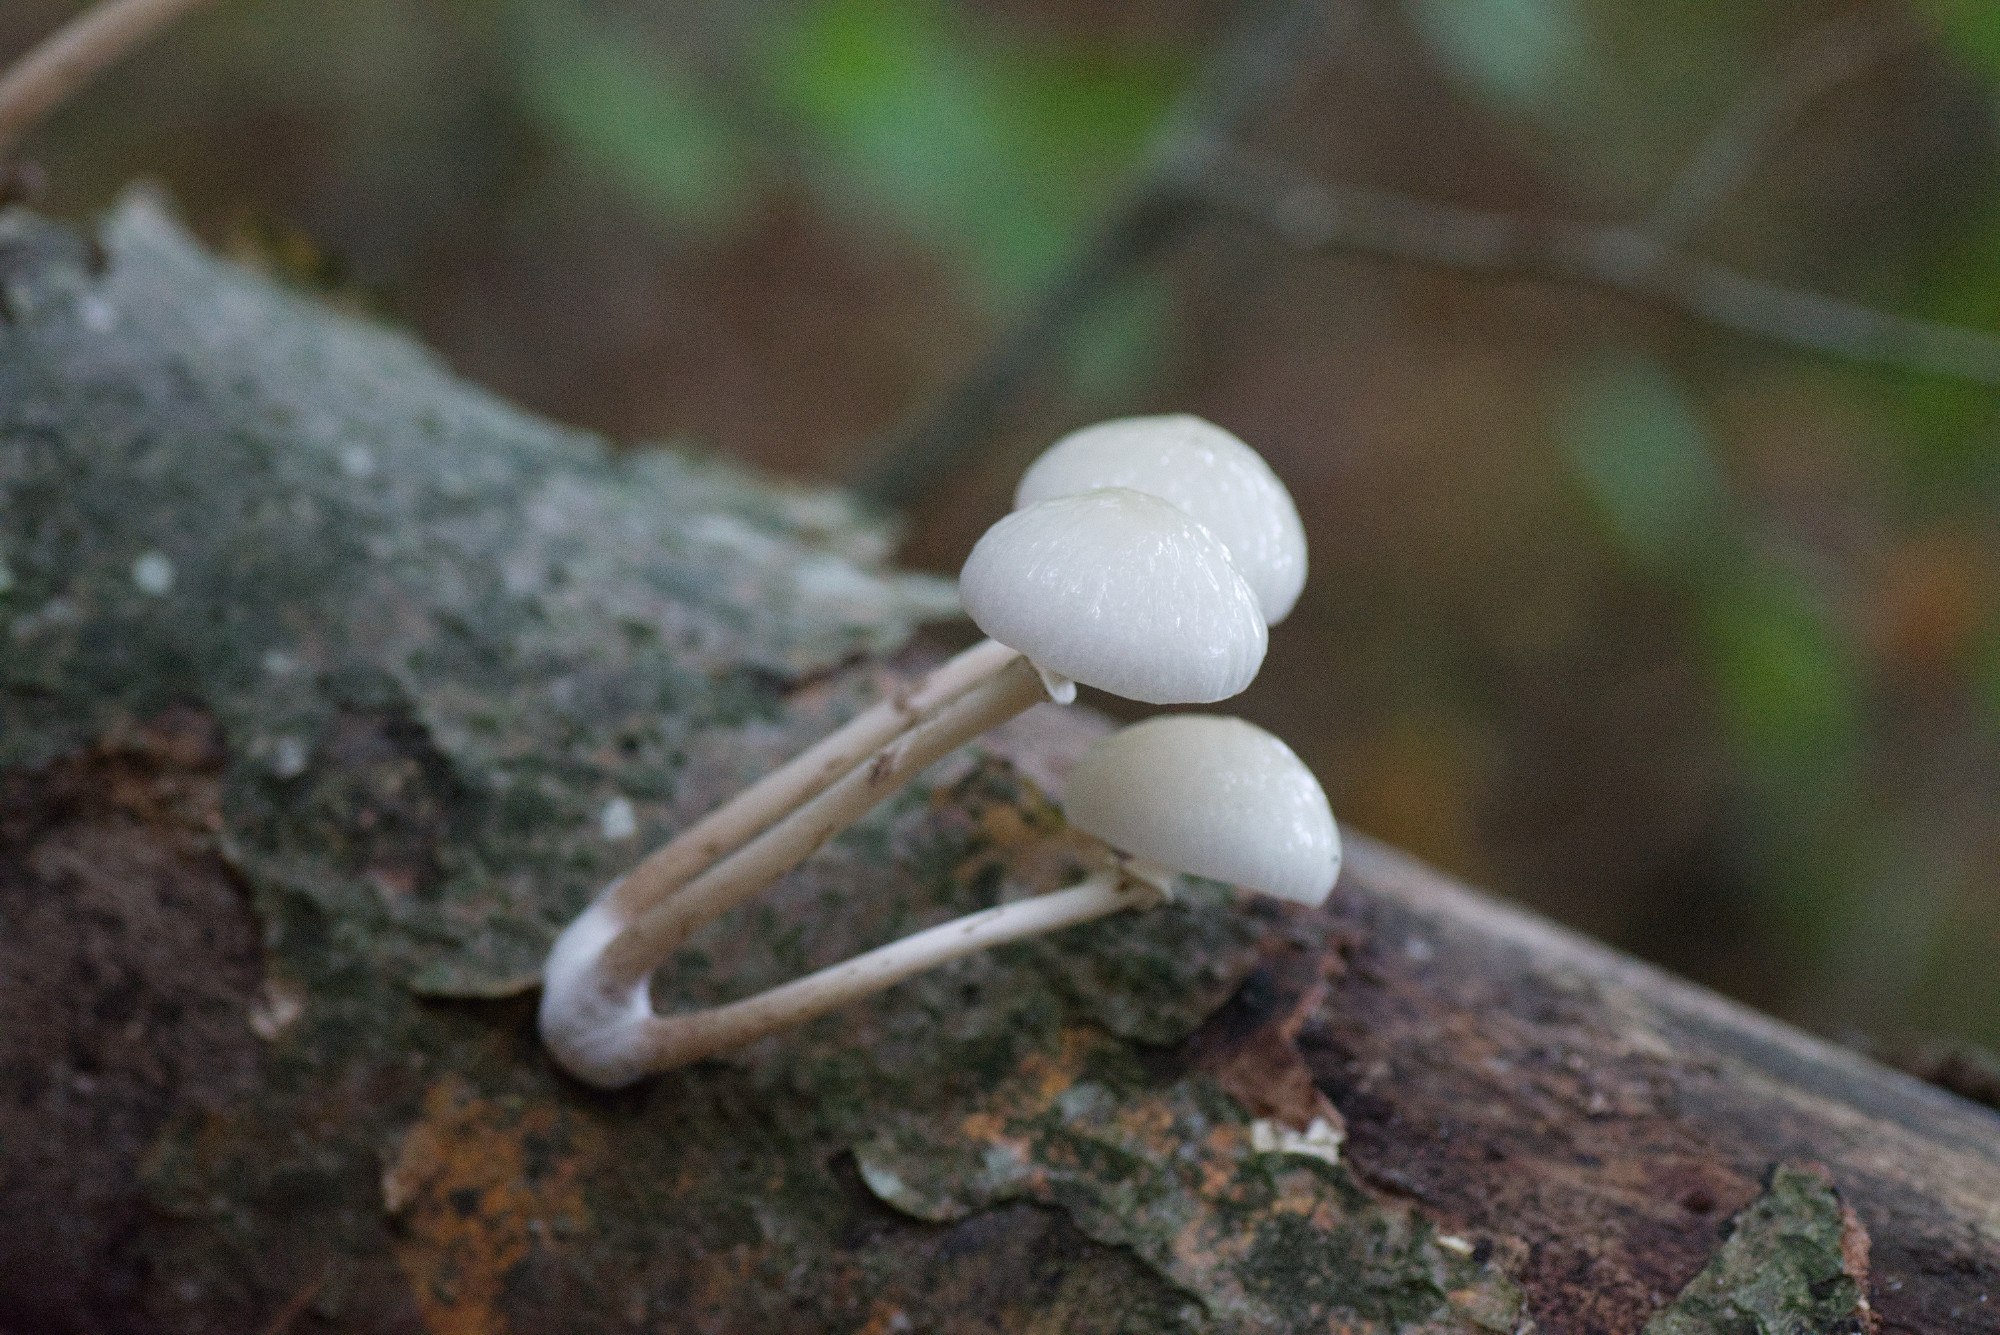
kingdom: Fungi
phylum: Basidiomycota
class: Agaricomycetes
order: Agaricales
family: Physalacriaceae
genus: Mucidula
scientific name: Mucidula mucida
